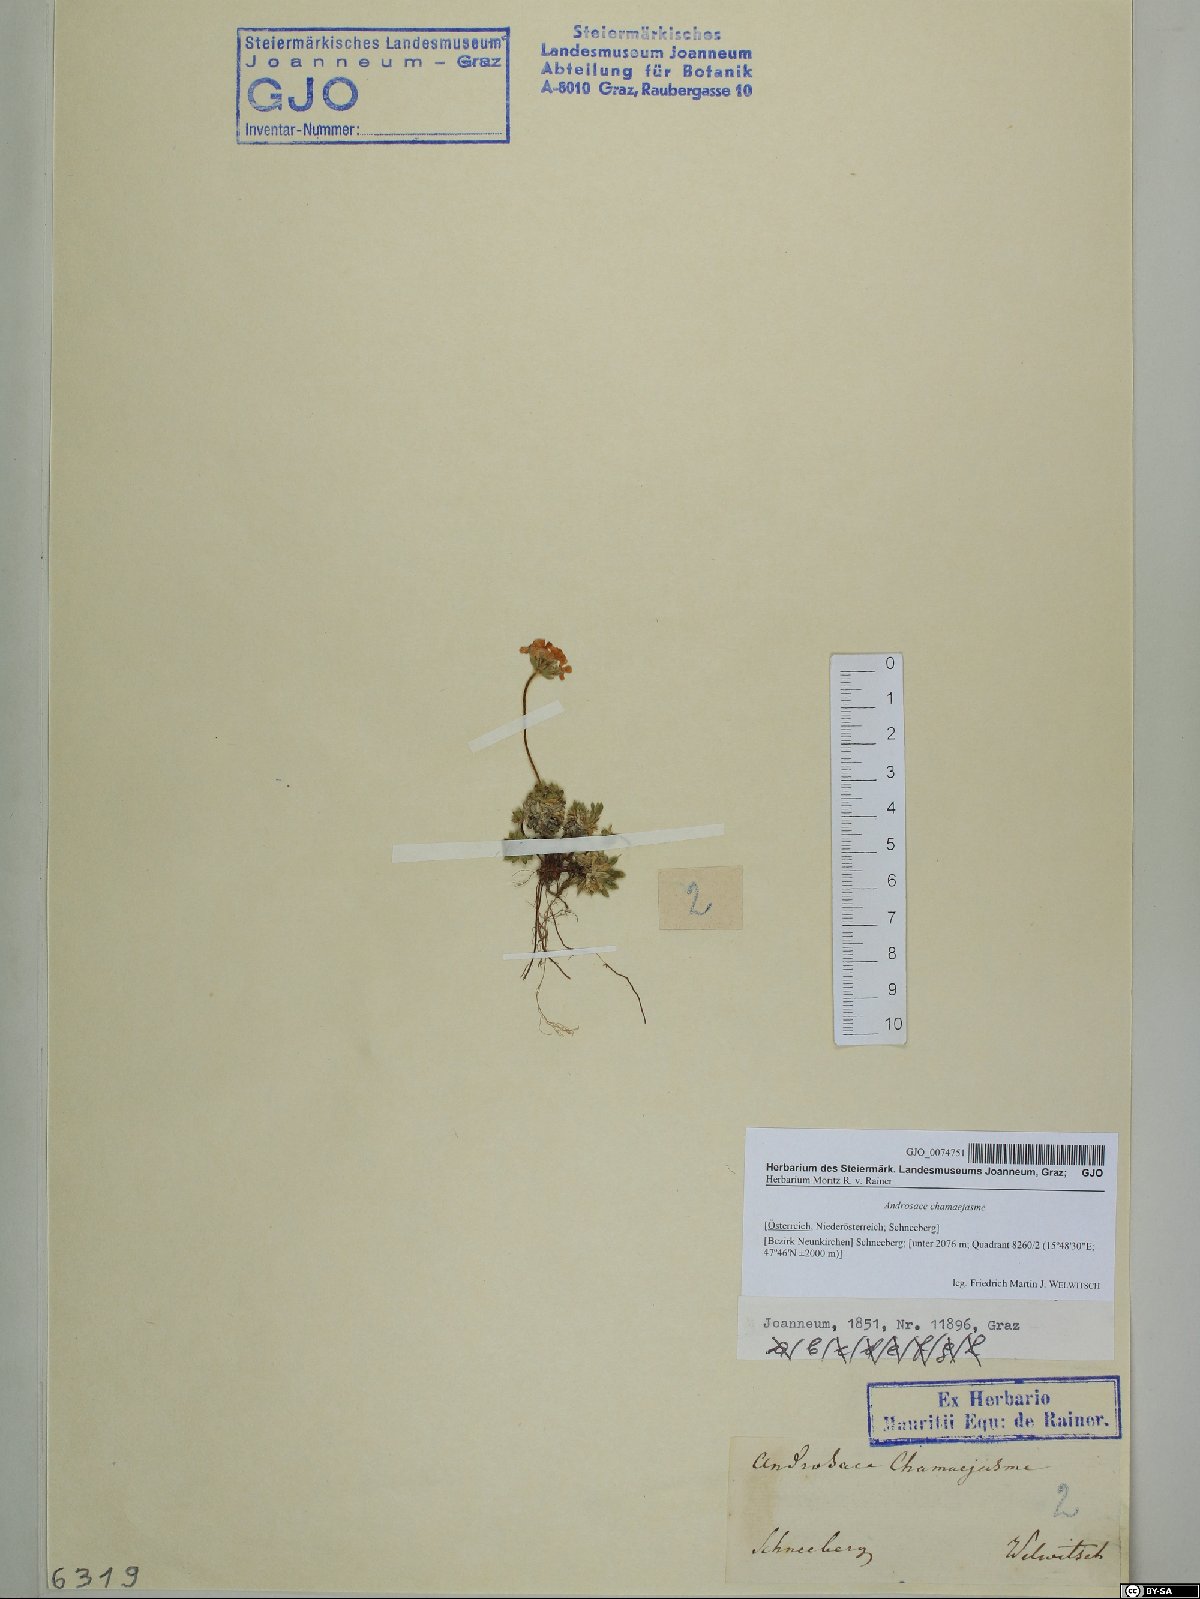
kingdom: Plantae
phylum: Tracheophyta
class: Magnoliopsida
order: Ericales
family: Primulaceae
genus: Androsace
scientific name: Androsace chamaejasme
